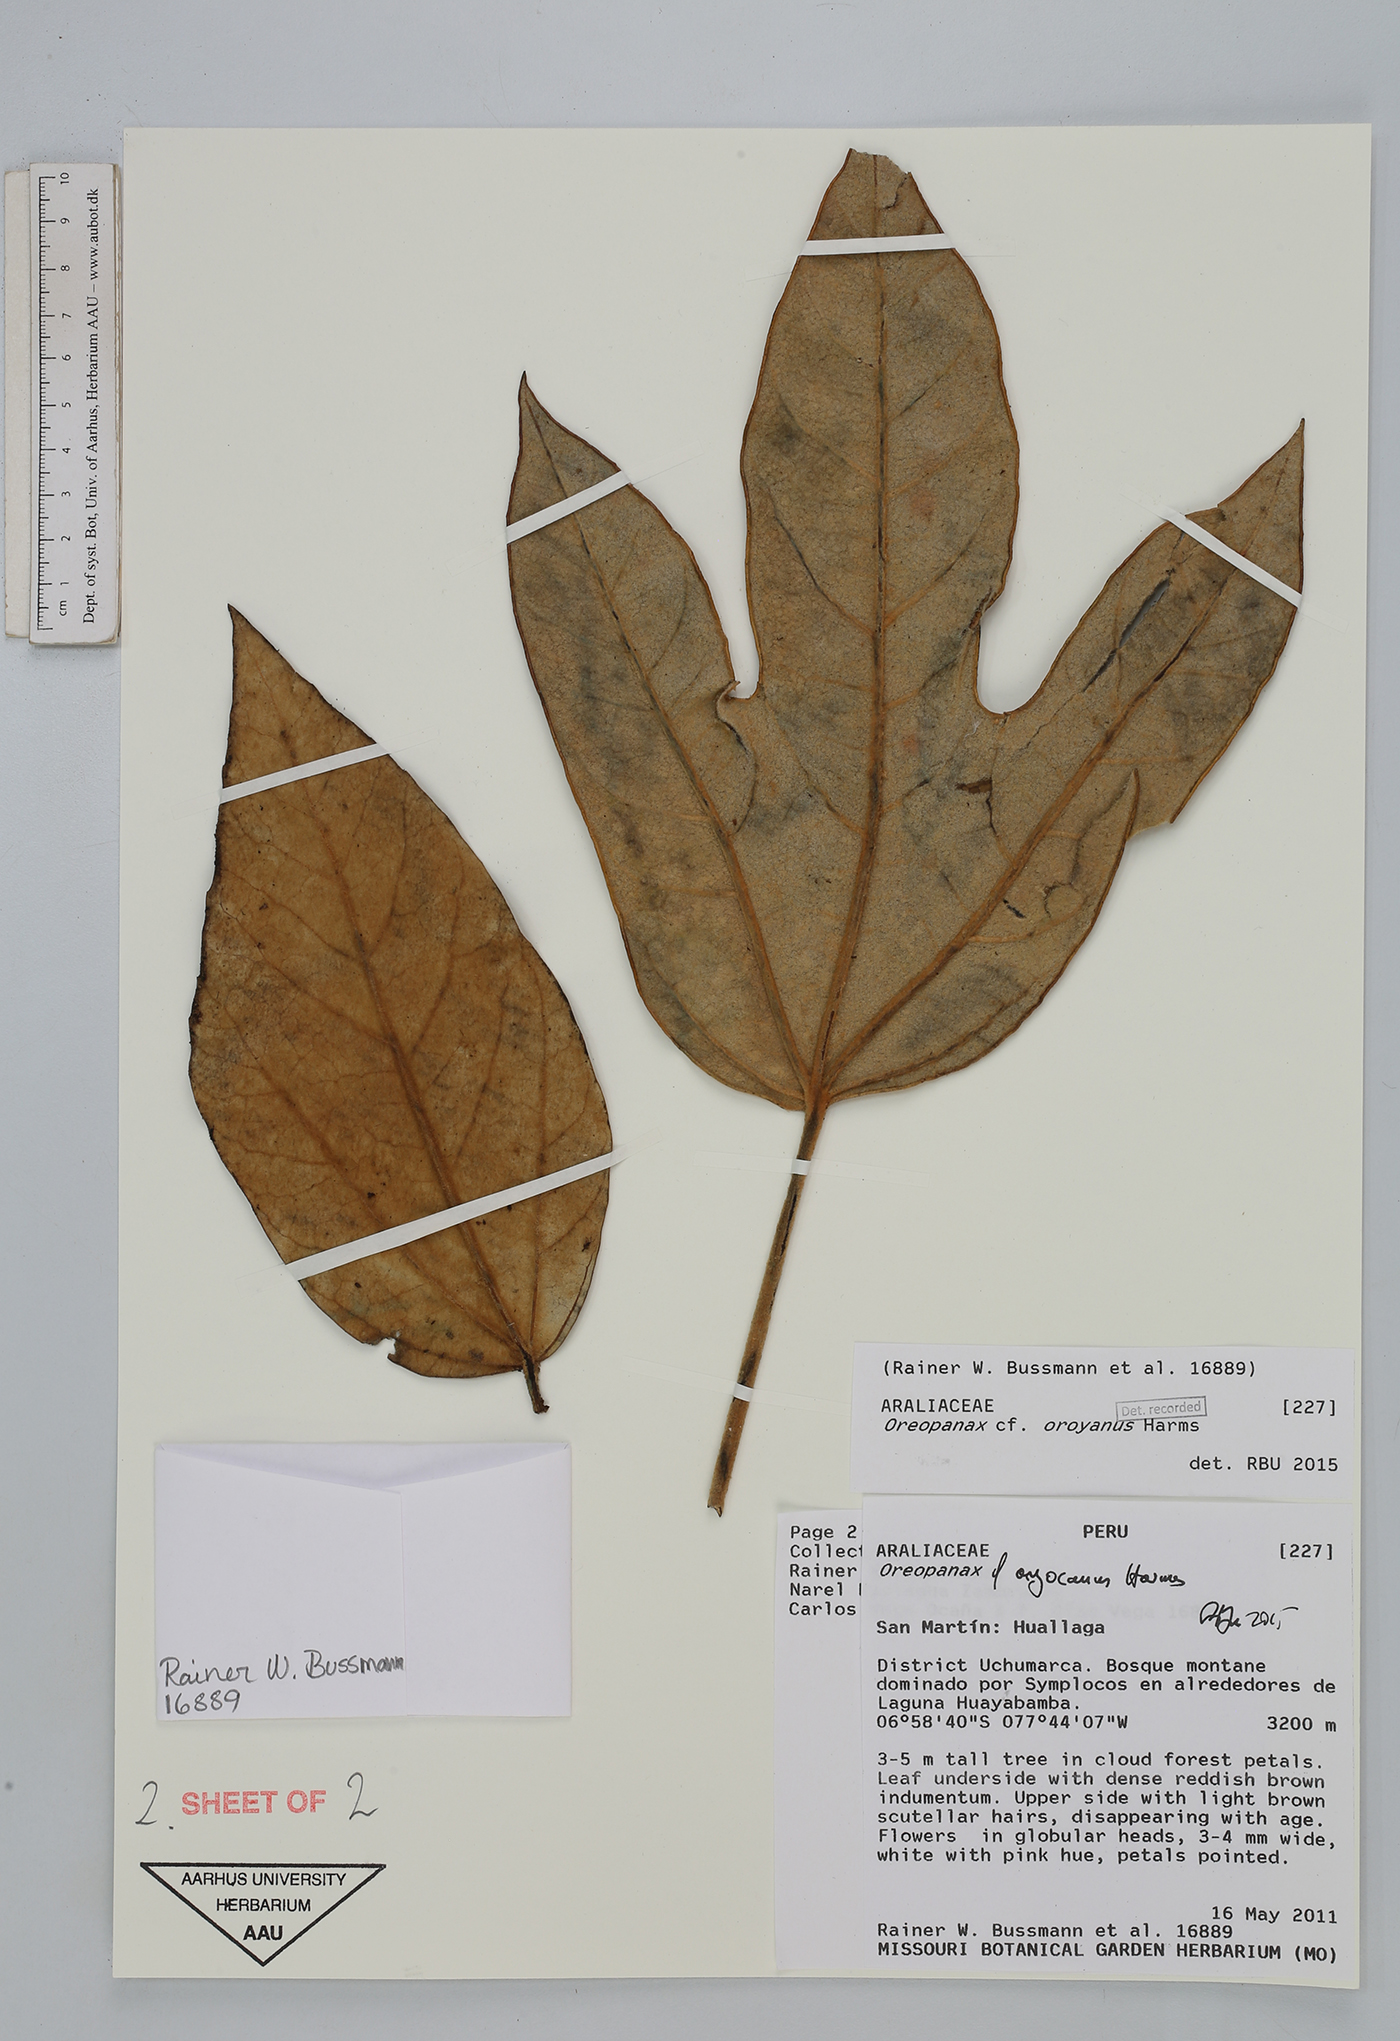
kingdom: Plantae
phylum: Tracheophyta
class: Magnoliopsida
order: Apiales
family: Araliaceae
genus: Oreopanax
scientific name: Oreopanax oroyanus
